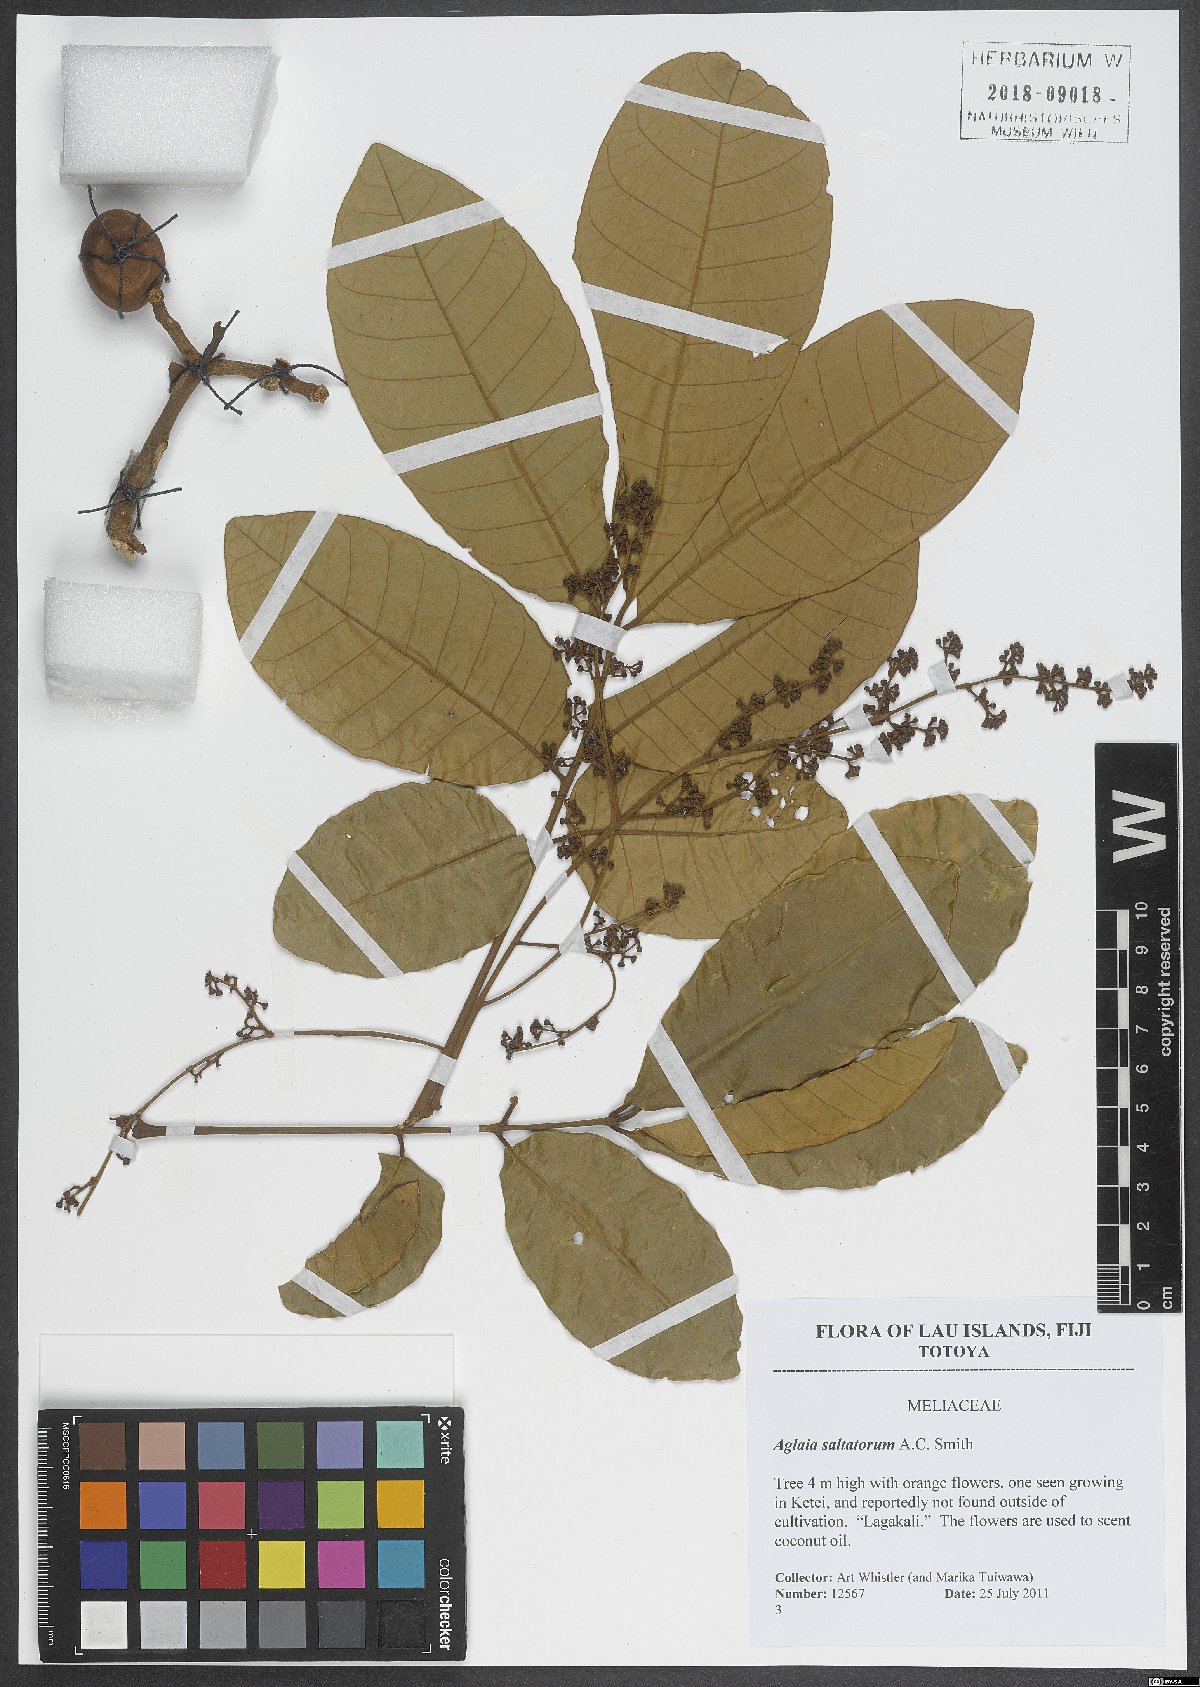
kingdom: Plantae
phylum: Tracheophyta
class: Magnoliopsida
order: Sapindales
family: Meliaceae
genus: Aglaia
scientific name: Aglaia saltatorum
